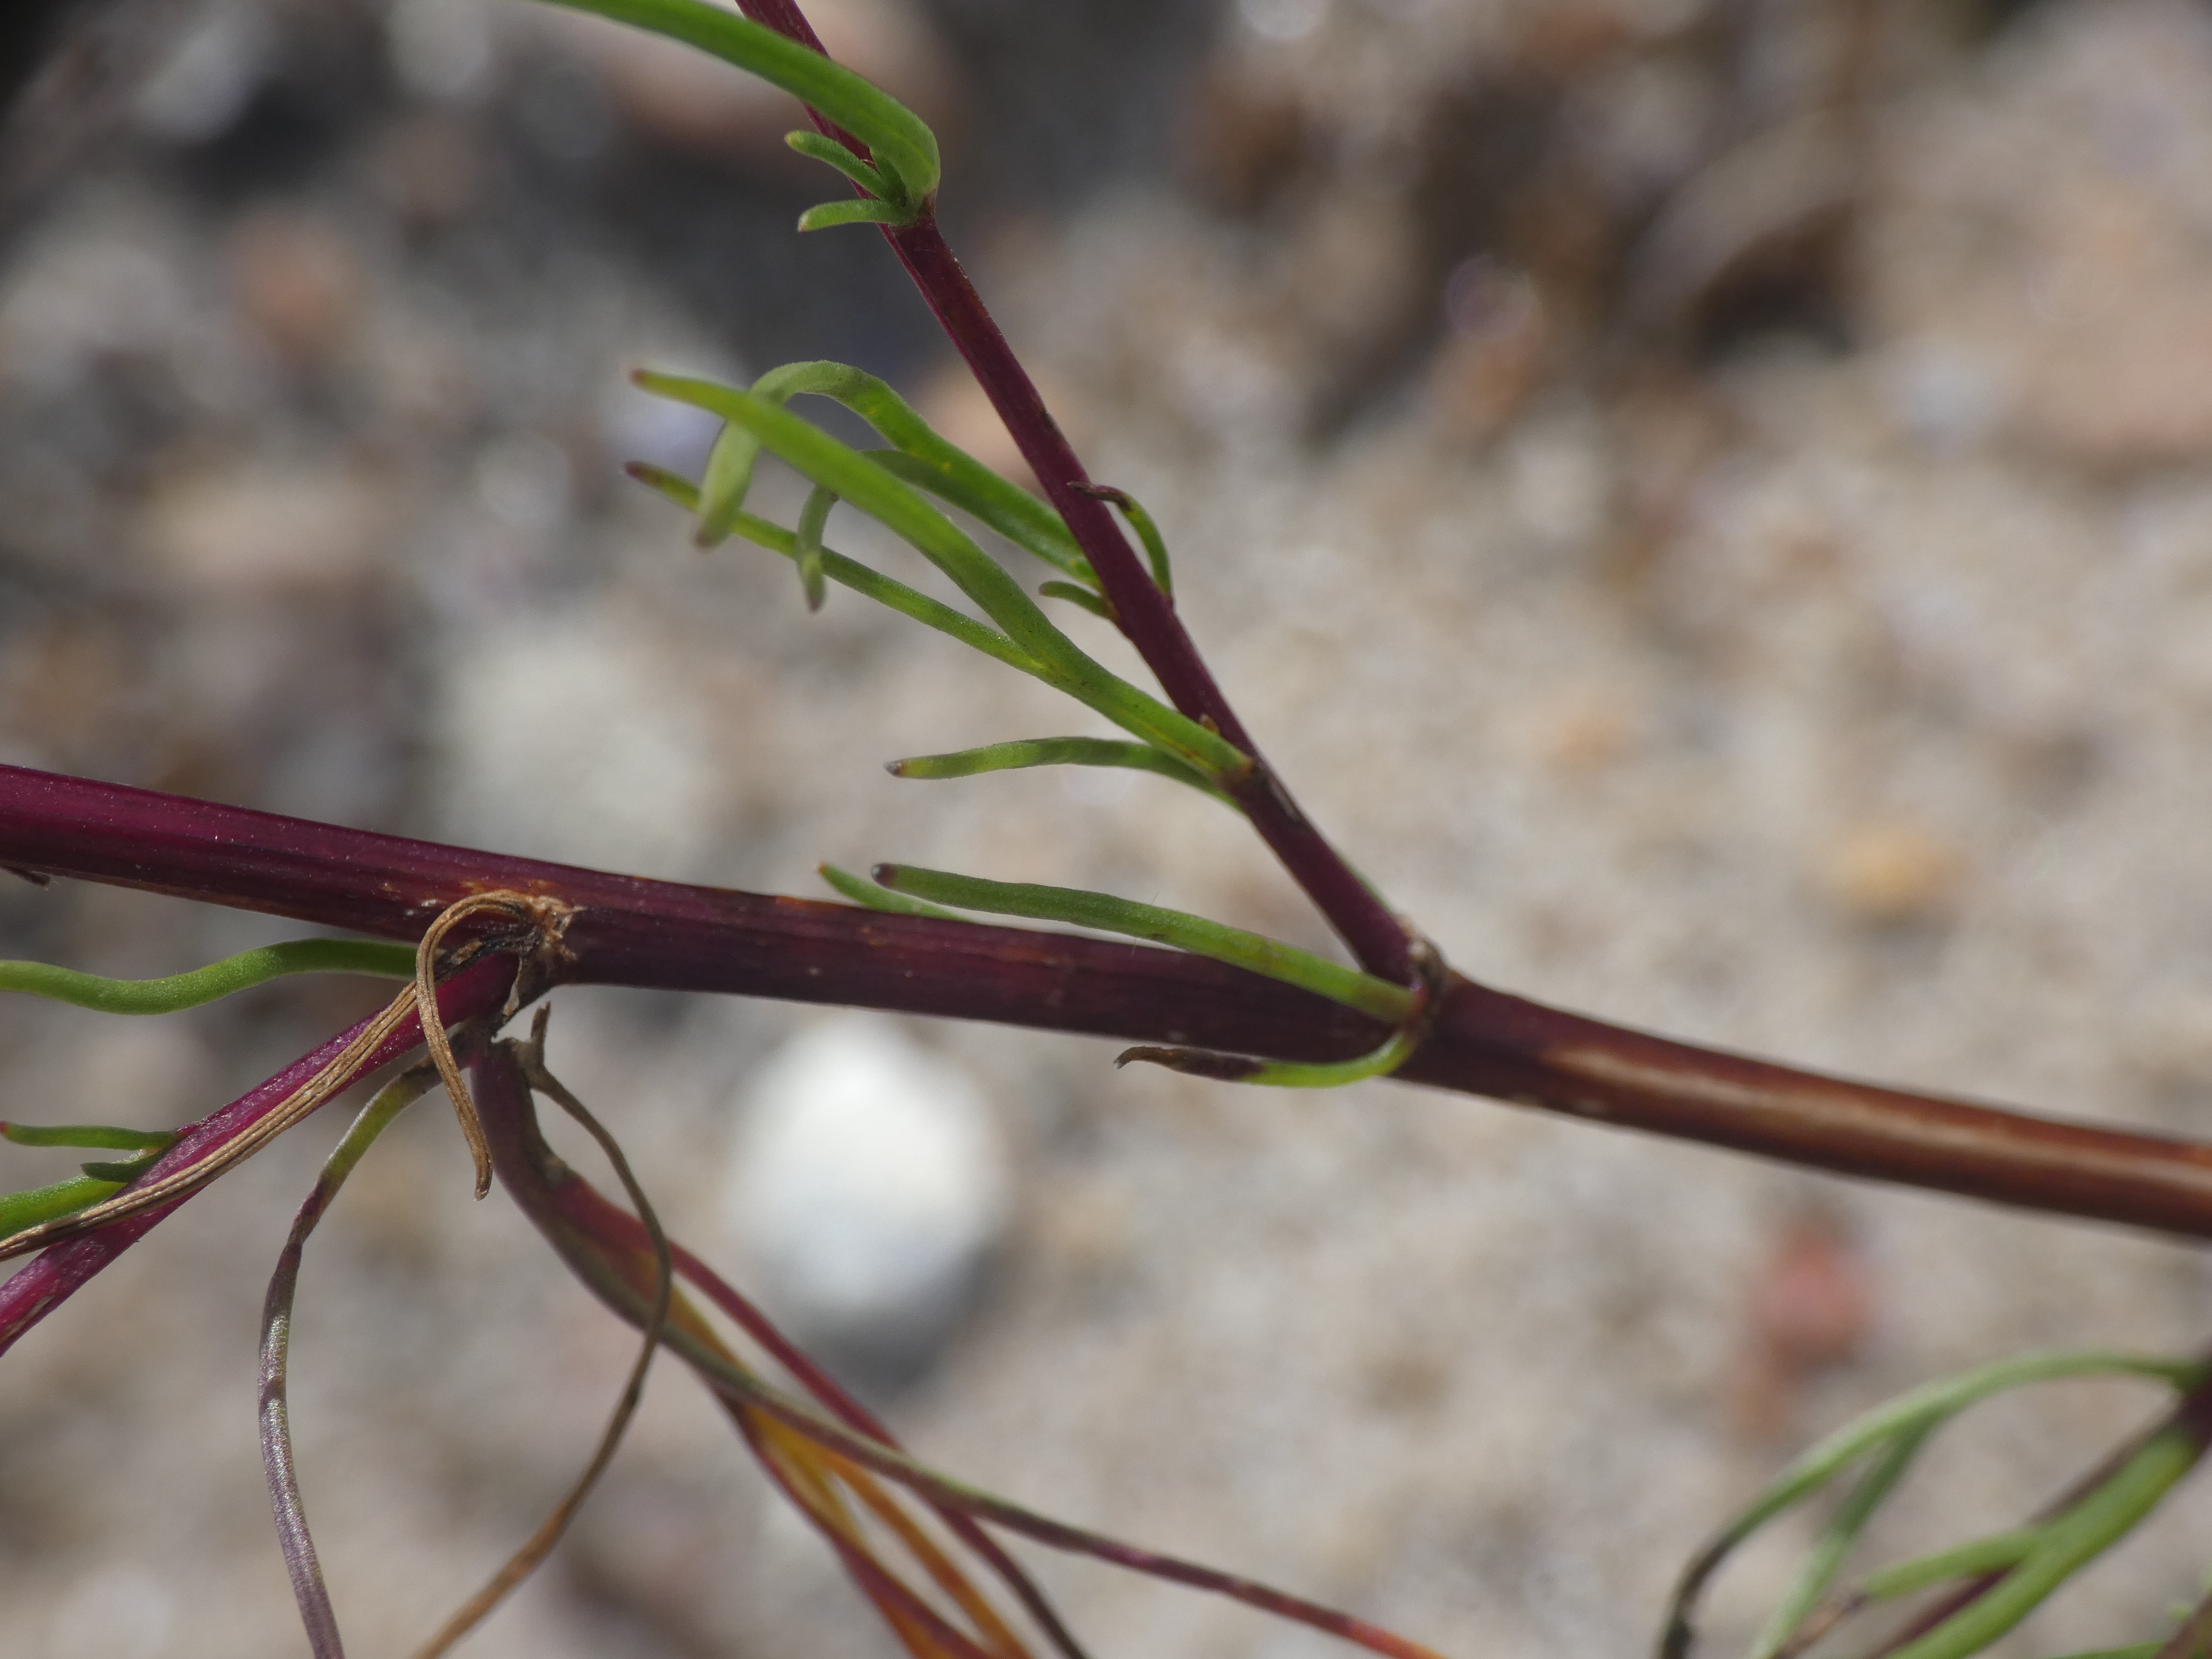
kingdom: Plantae
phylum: Tracheophyta
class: Magnoliopsida
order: Asterales
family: Asteraceae
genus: Artemisia
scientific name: Artemisia campestris
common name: Mark-bynke
